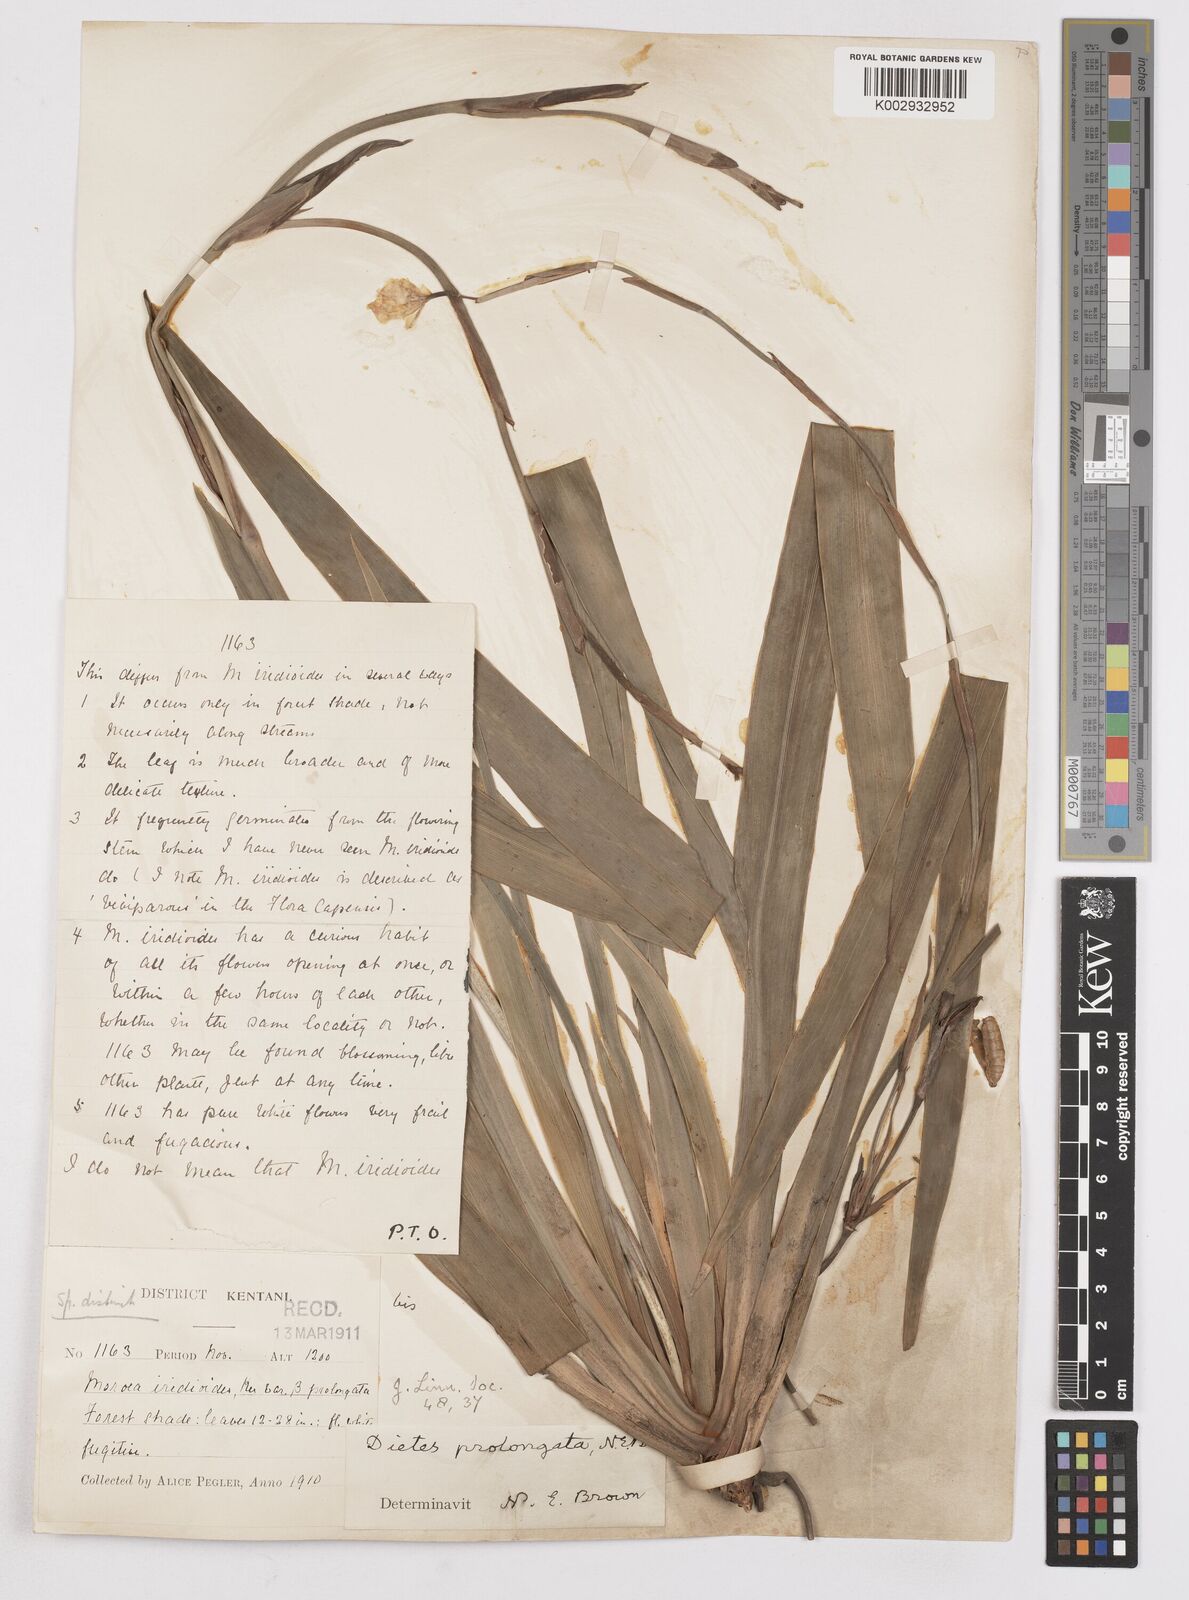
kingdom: Plantae
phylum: Tracheophyta
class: Liliopsida
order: Asparagales
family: Iridaceae
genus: Dietes
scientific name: Dietes iridioides
